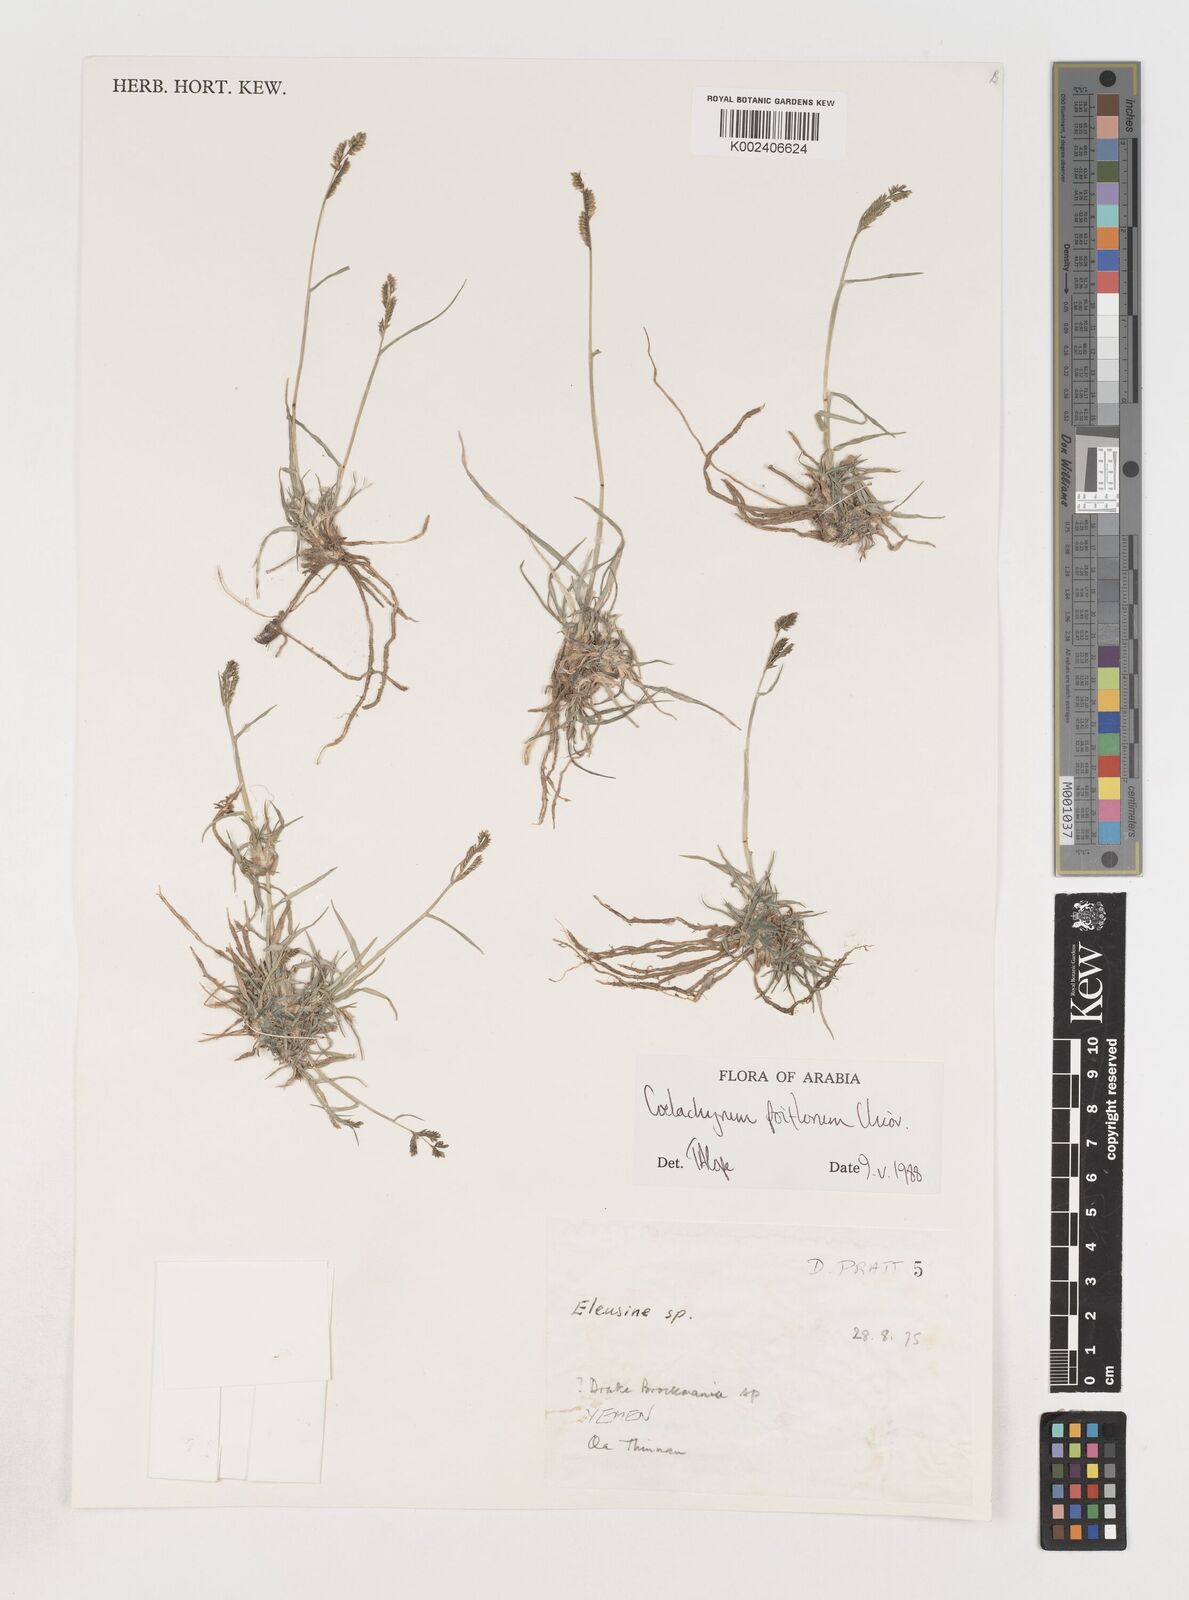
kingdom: Plantae
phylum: Tracheophyta
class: Liliopsida
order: Poales
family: Poaceae
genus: Coelachyrum
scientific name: Coelachyrum poiflorum
